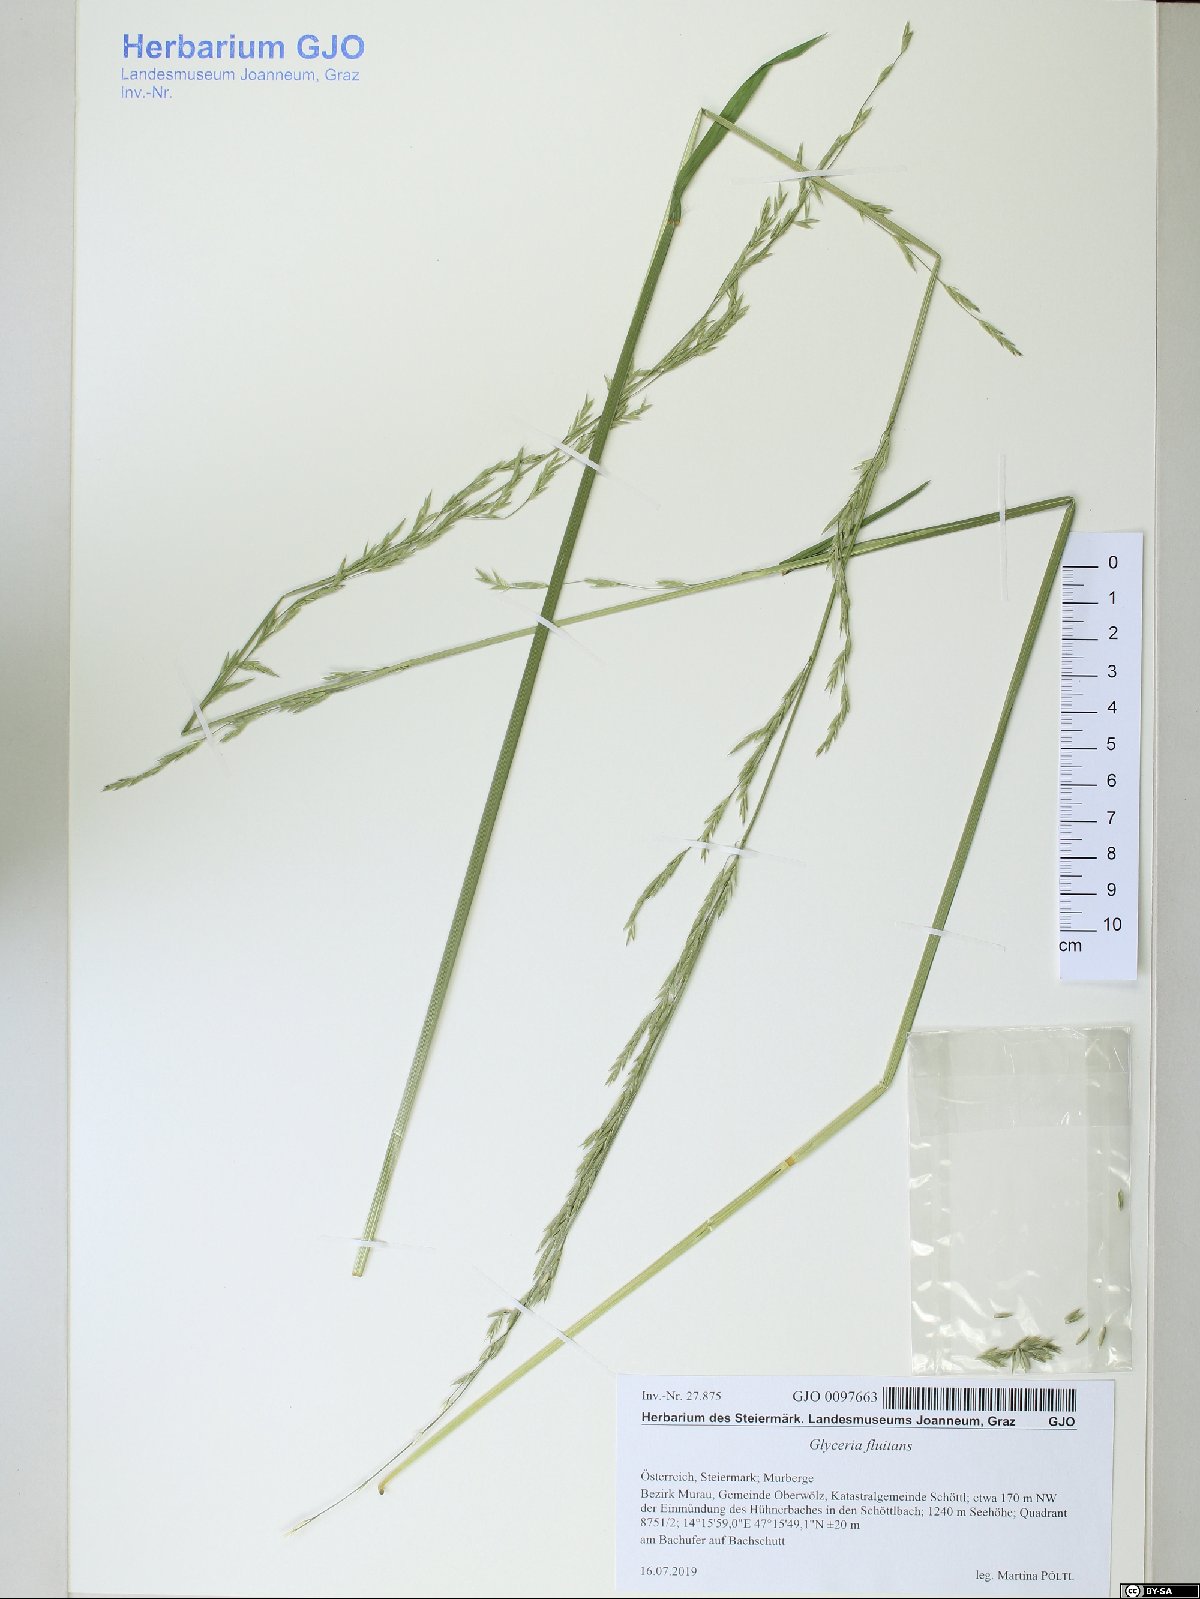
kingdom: Plantae
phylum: Tracheophyta
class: Liliopsida
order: Poales
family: Poaceae
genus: Glyceria
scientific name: Glyceria fluitans
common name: Floating sweet-grass
